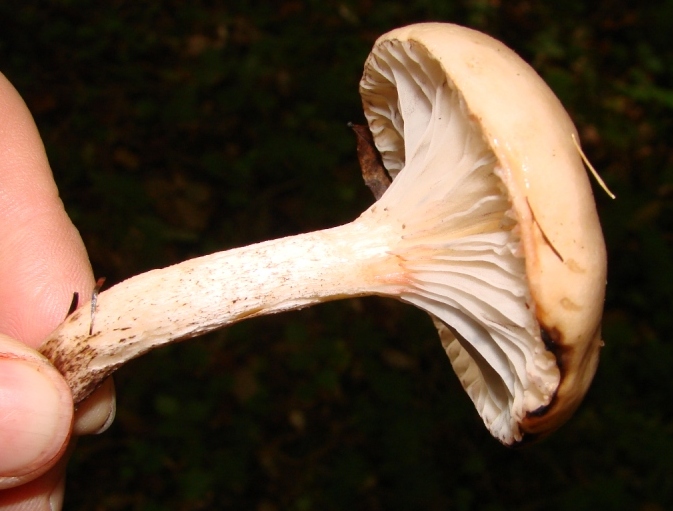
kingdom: Fungi
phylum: Basidiomycota
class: Agaricomycetes
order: Boletales
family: Gomphidiaceae
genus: Gomphidius
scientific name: Gomphidius maculatus
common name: rødmende slimslør
